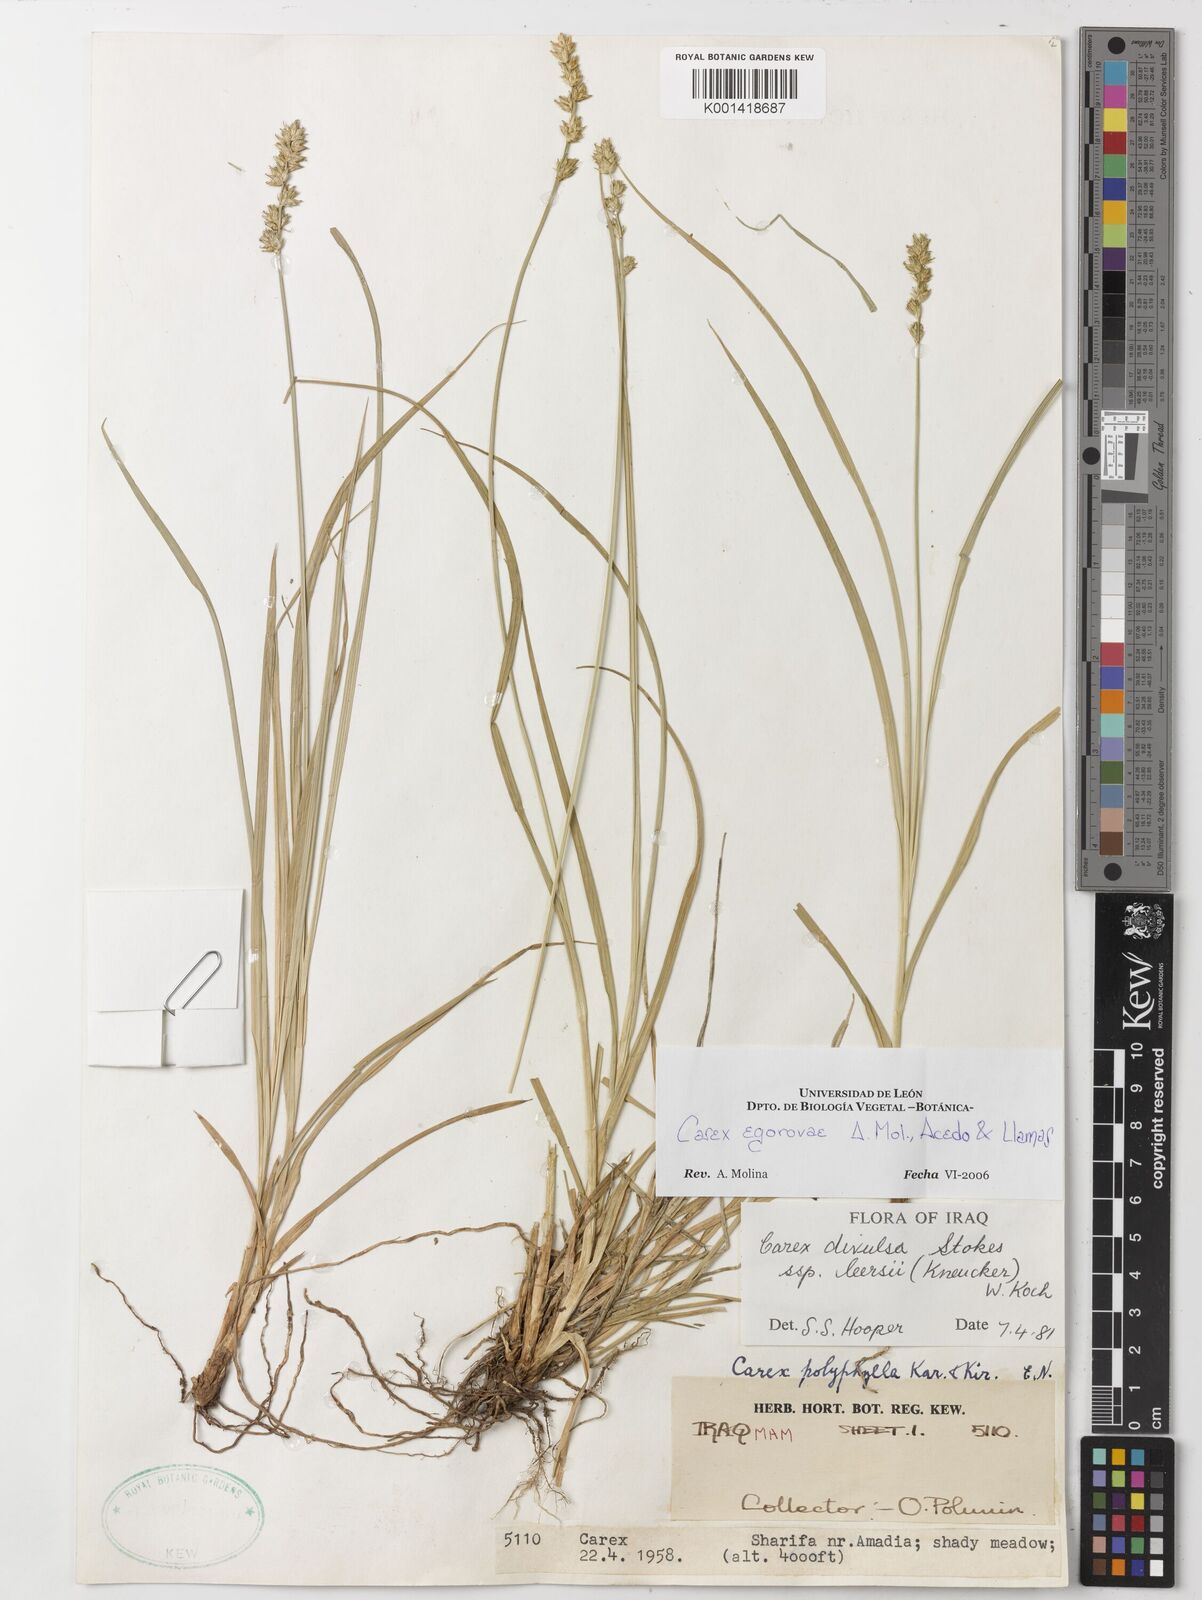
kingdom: Plantae
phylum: Tracheophyta
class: Liliopsida
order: Poales
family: Cyperaceae
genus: Carex
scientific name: Carex egorovae
